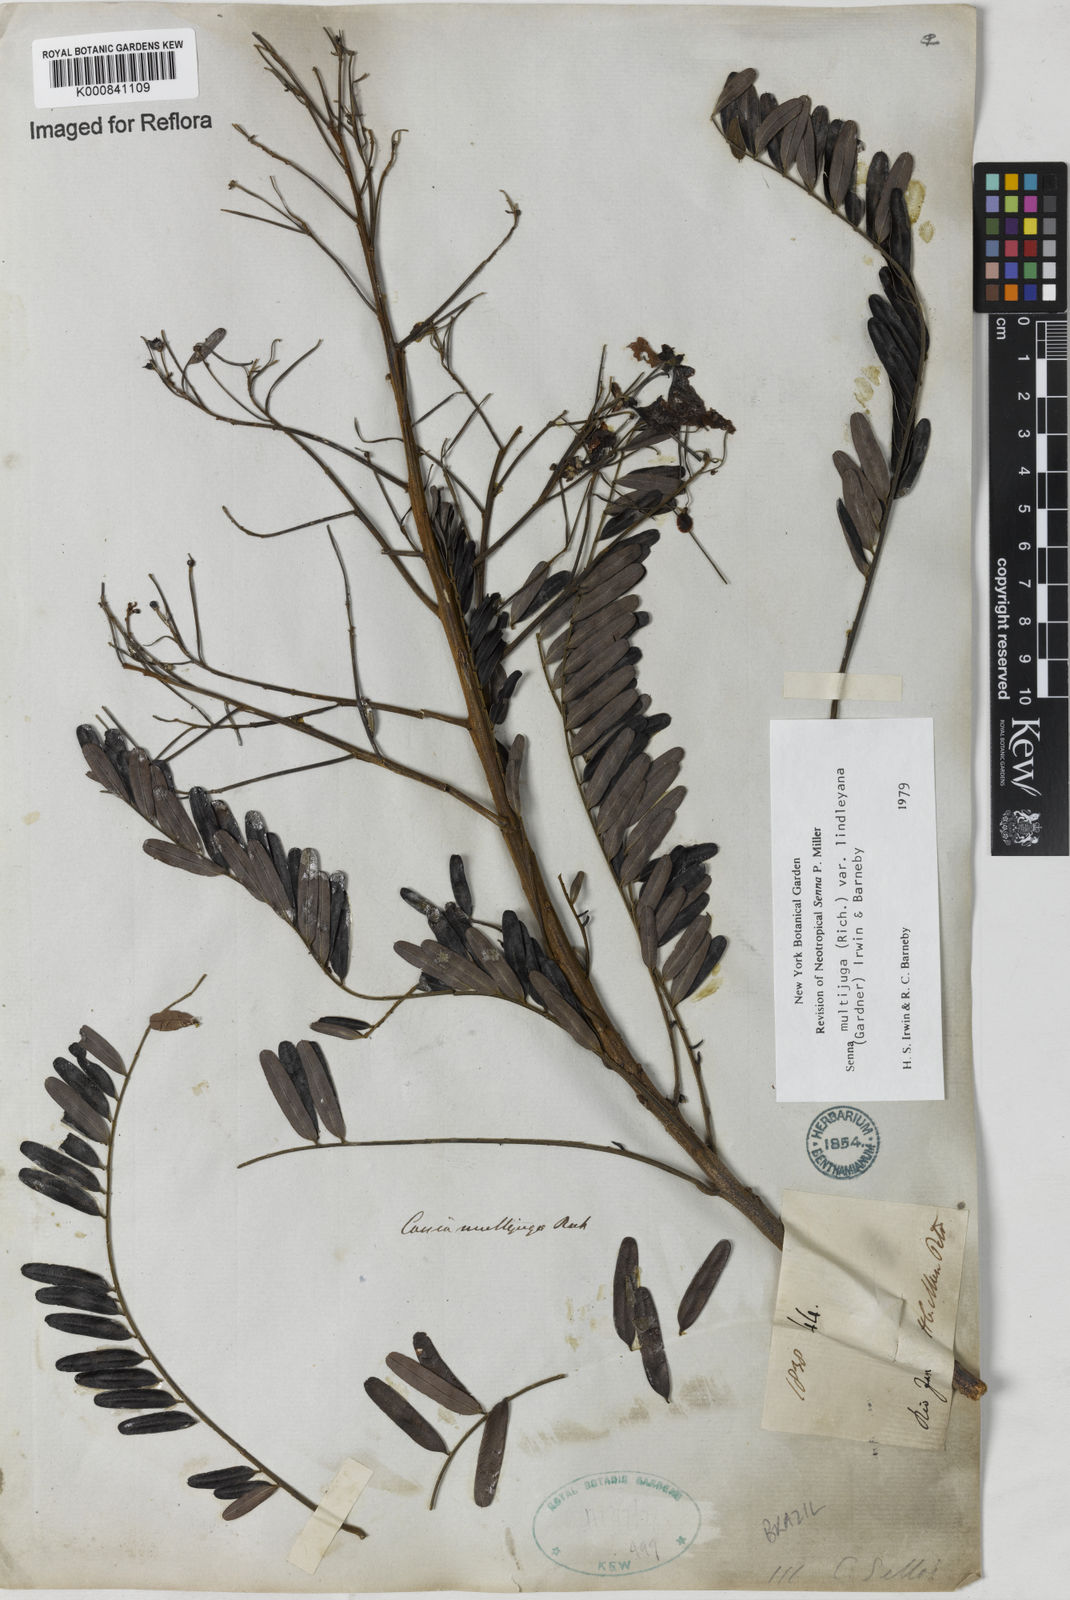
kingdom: Plantae
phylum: Tracheophyta
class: Magnoliopsida
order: Fabales
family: Fabaceae
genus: Senna
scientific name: Senna multijuga
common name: False sicklepod
